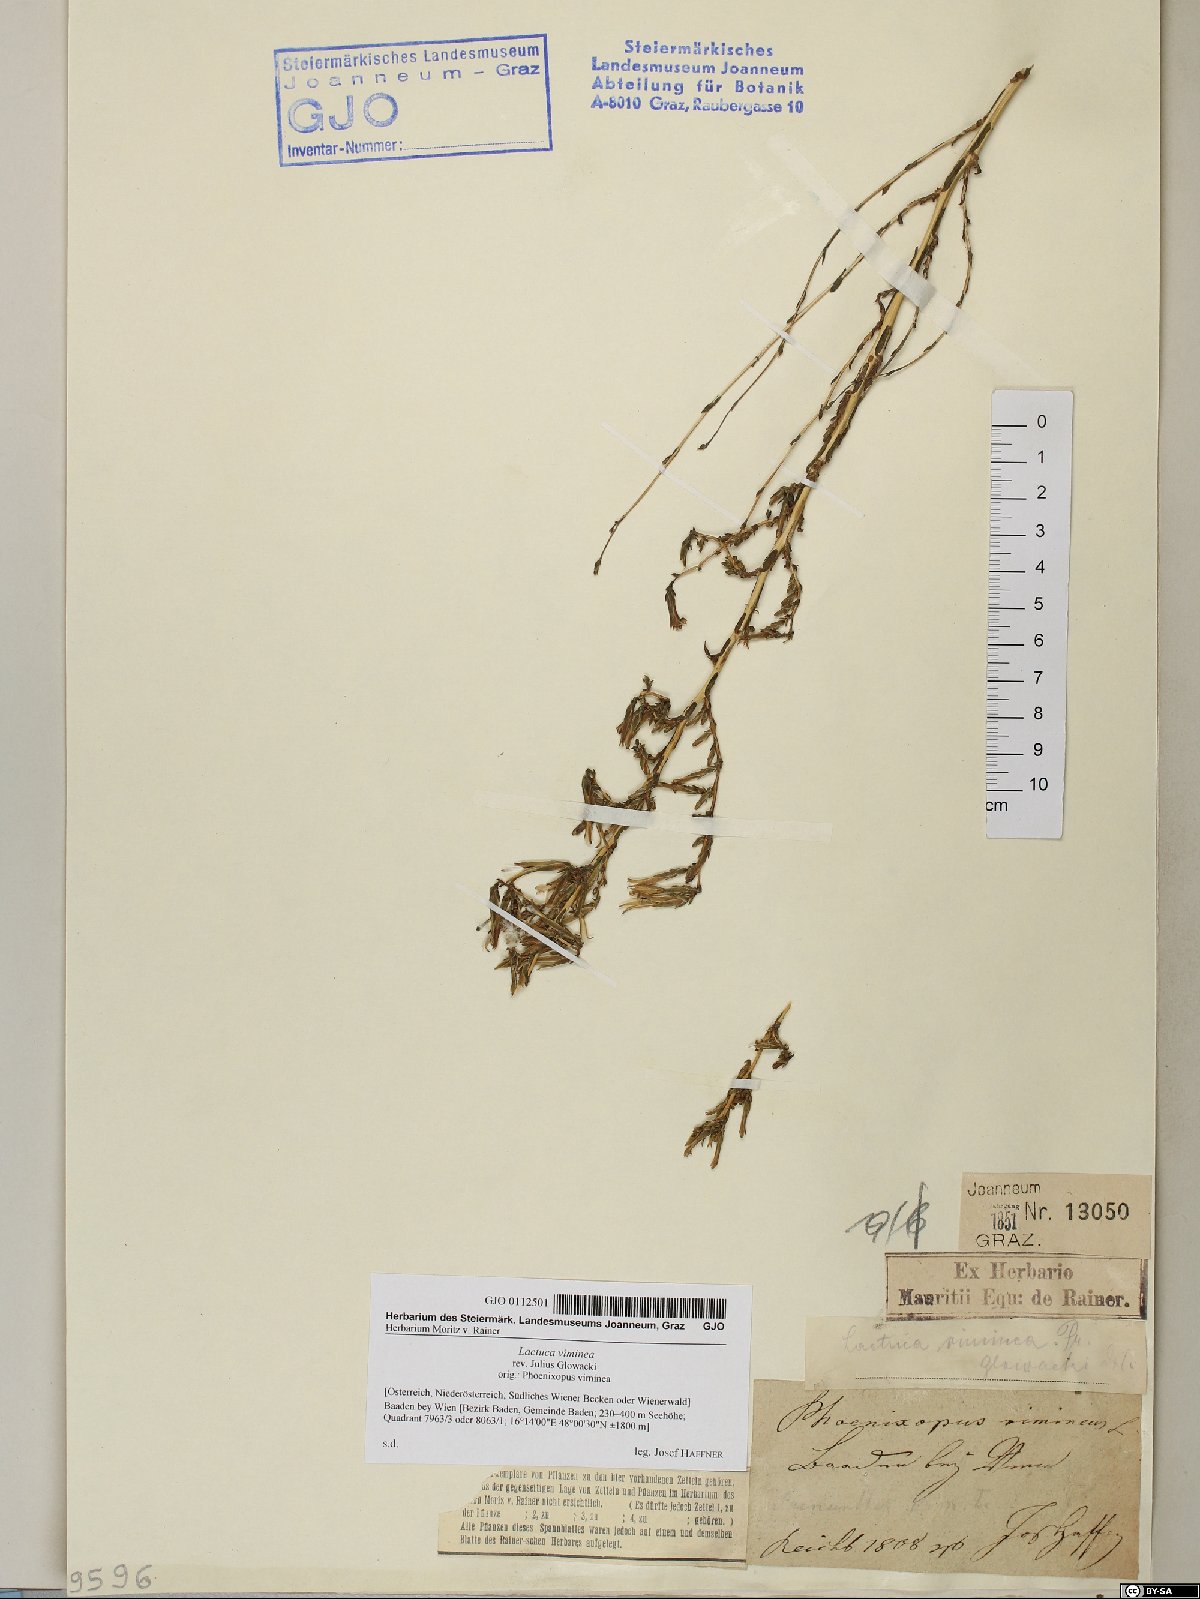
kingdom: Plantae
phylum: Tracheophyta
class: Magnoliopsida
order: Asterales
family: Asteraceae
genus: Lactuca
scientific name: Lactuca viminea
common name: Pliant lettuce
